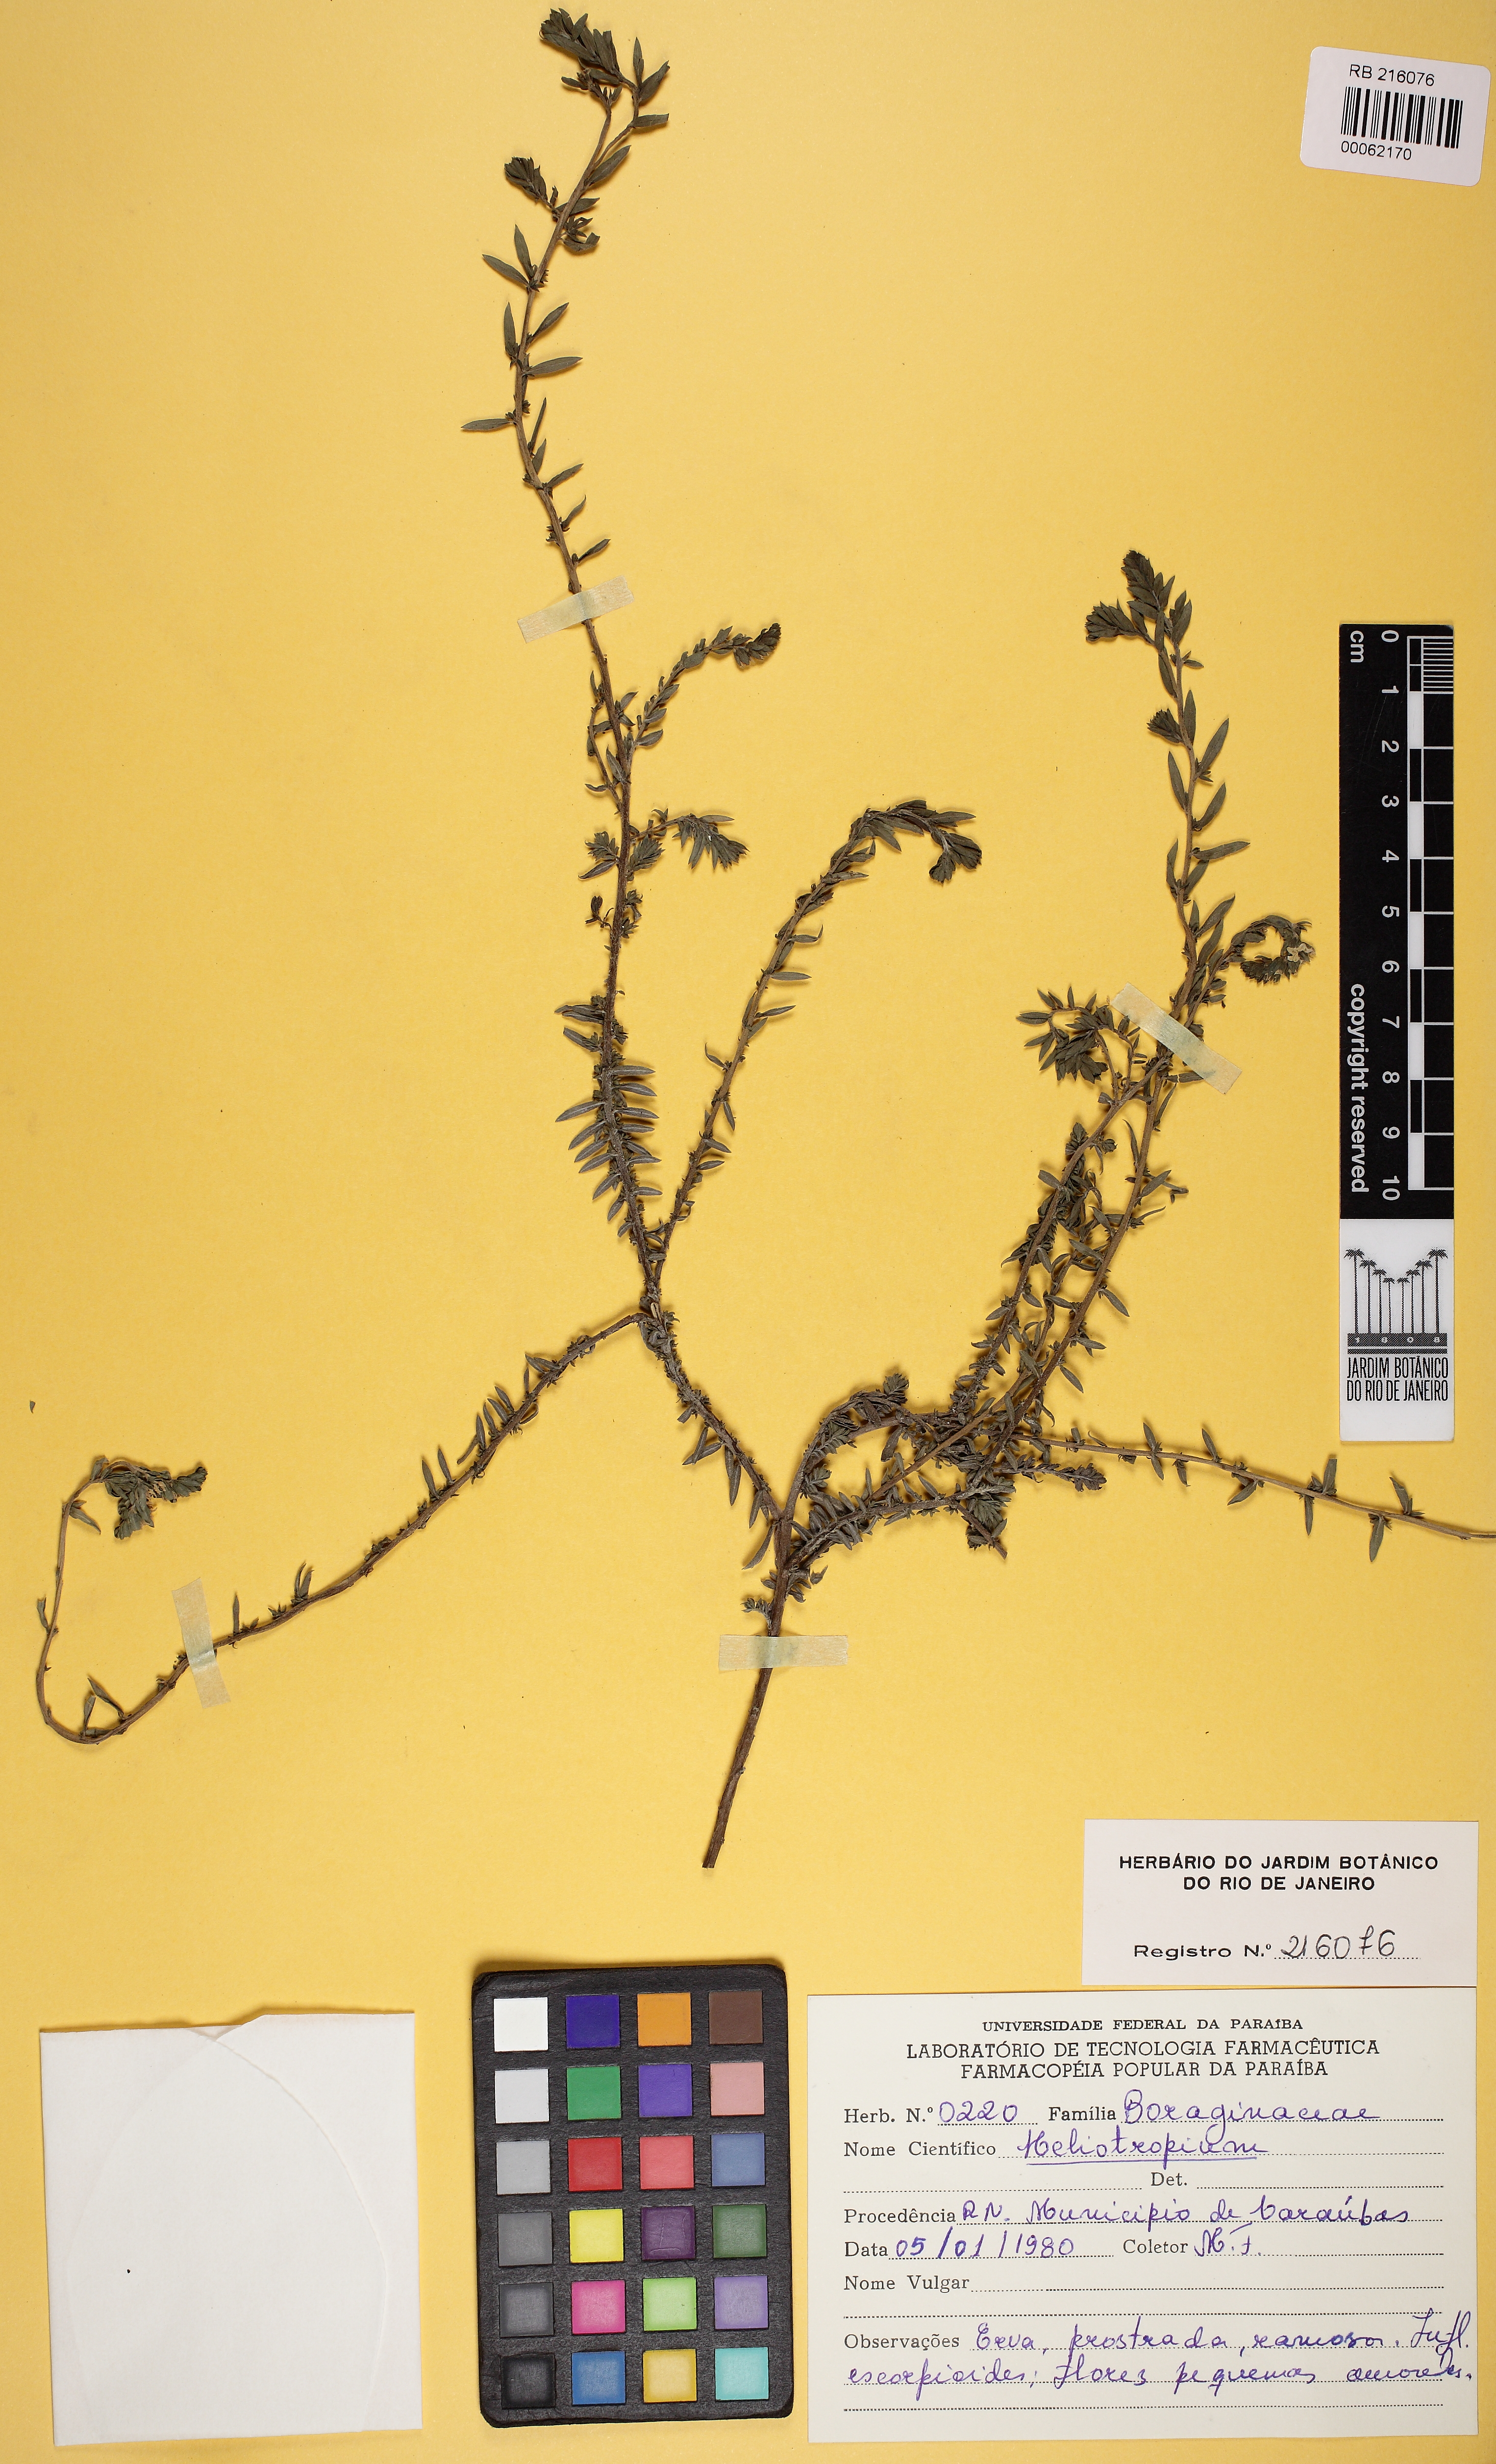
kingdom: Plantae
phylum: Tracheophyta
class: Magnoliopsida
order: Boraginales
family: Heliotropiaceae
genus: Euploca
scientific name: Euploca polyphylla
